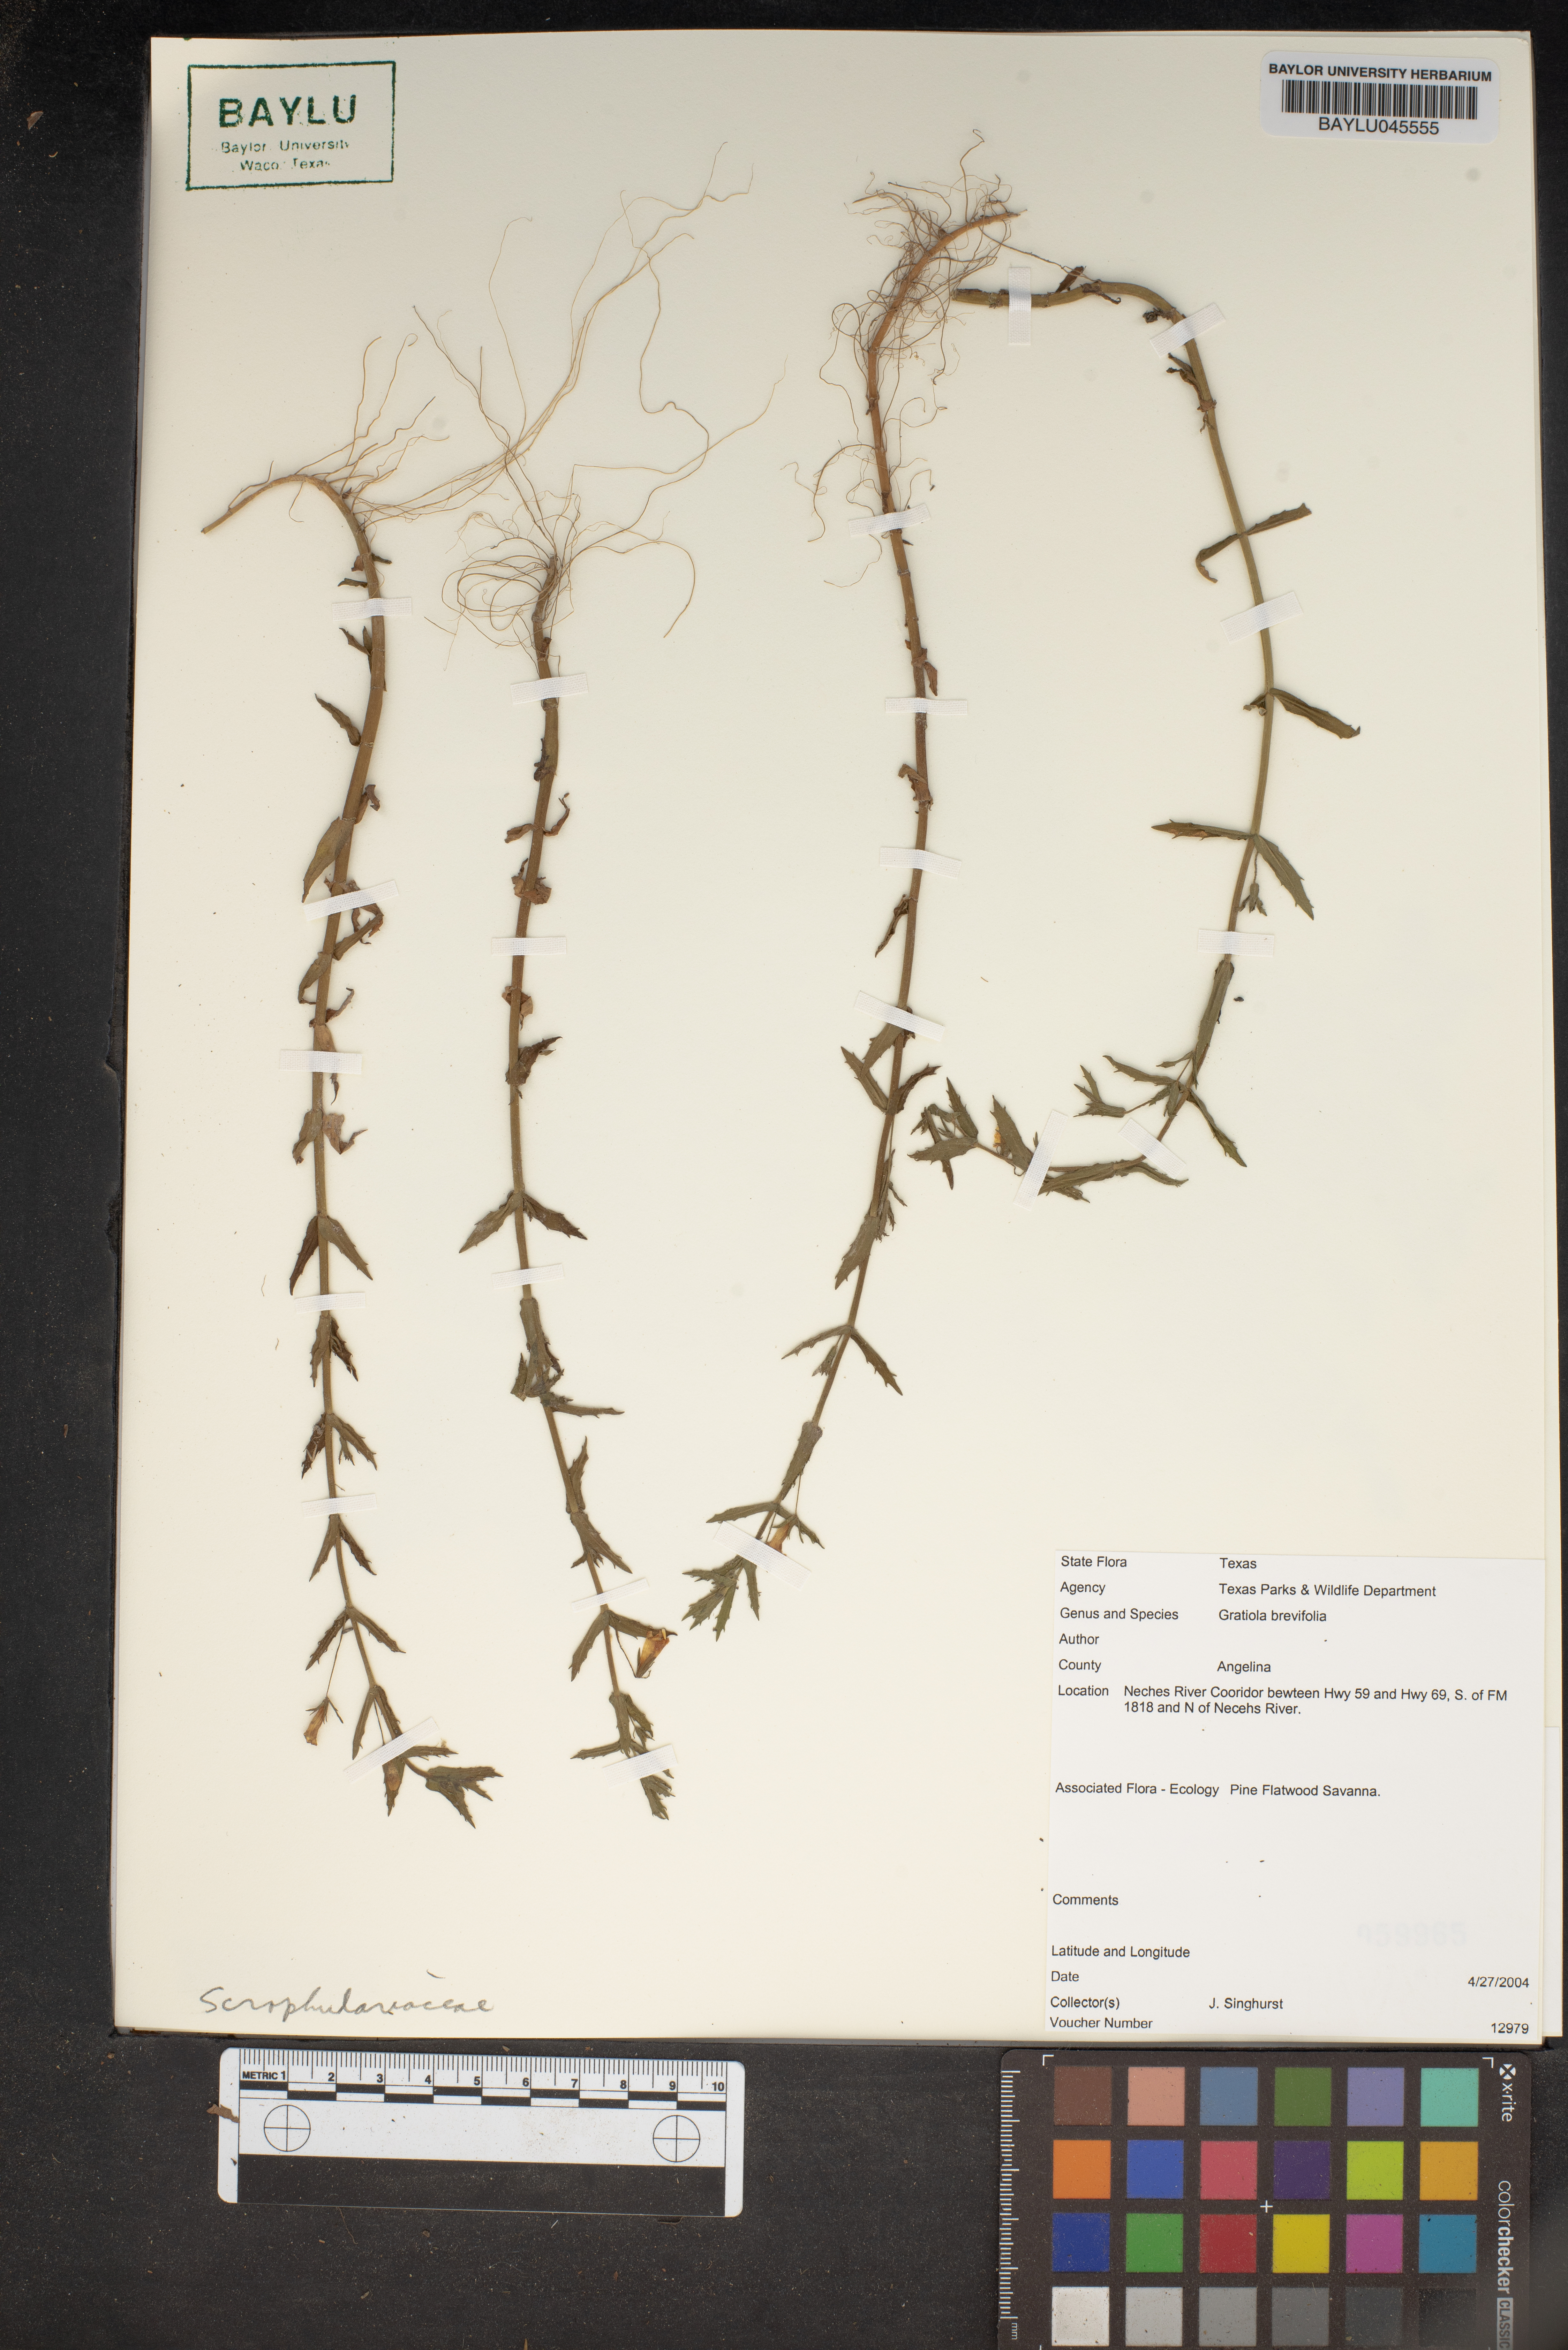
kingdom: Plantae
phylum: Tracheophyta
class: Magnoliopsida
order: Lamiales
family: Plantaginaceae
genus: Gratiola
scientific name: Gratiola brevifolia
